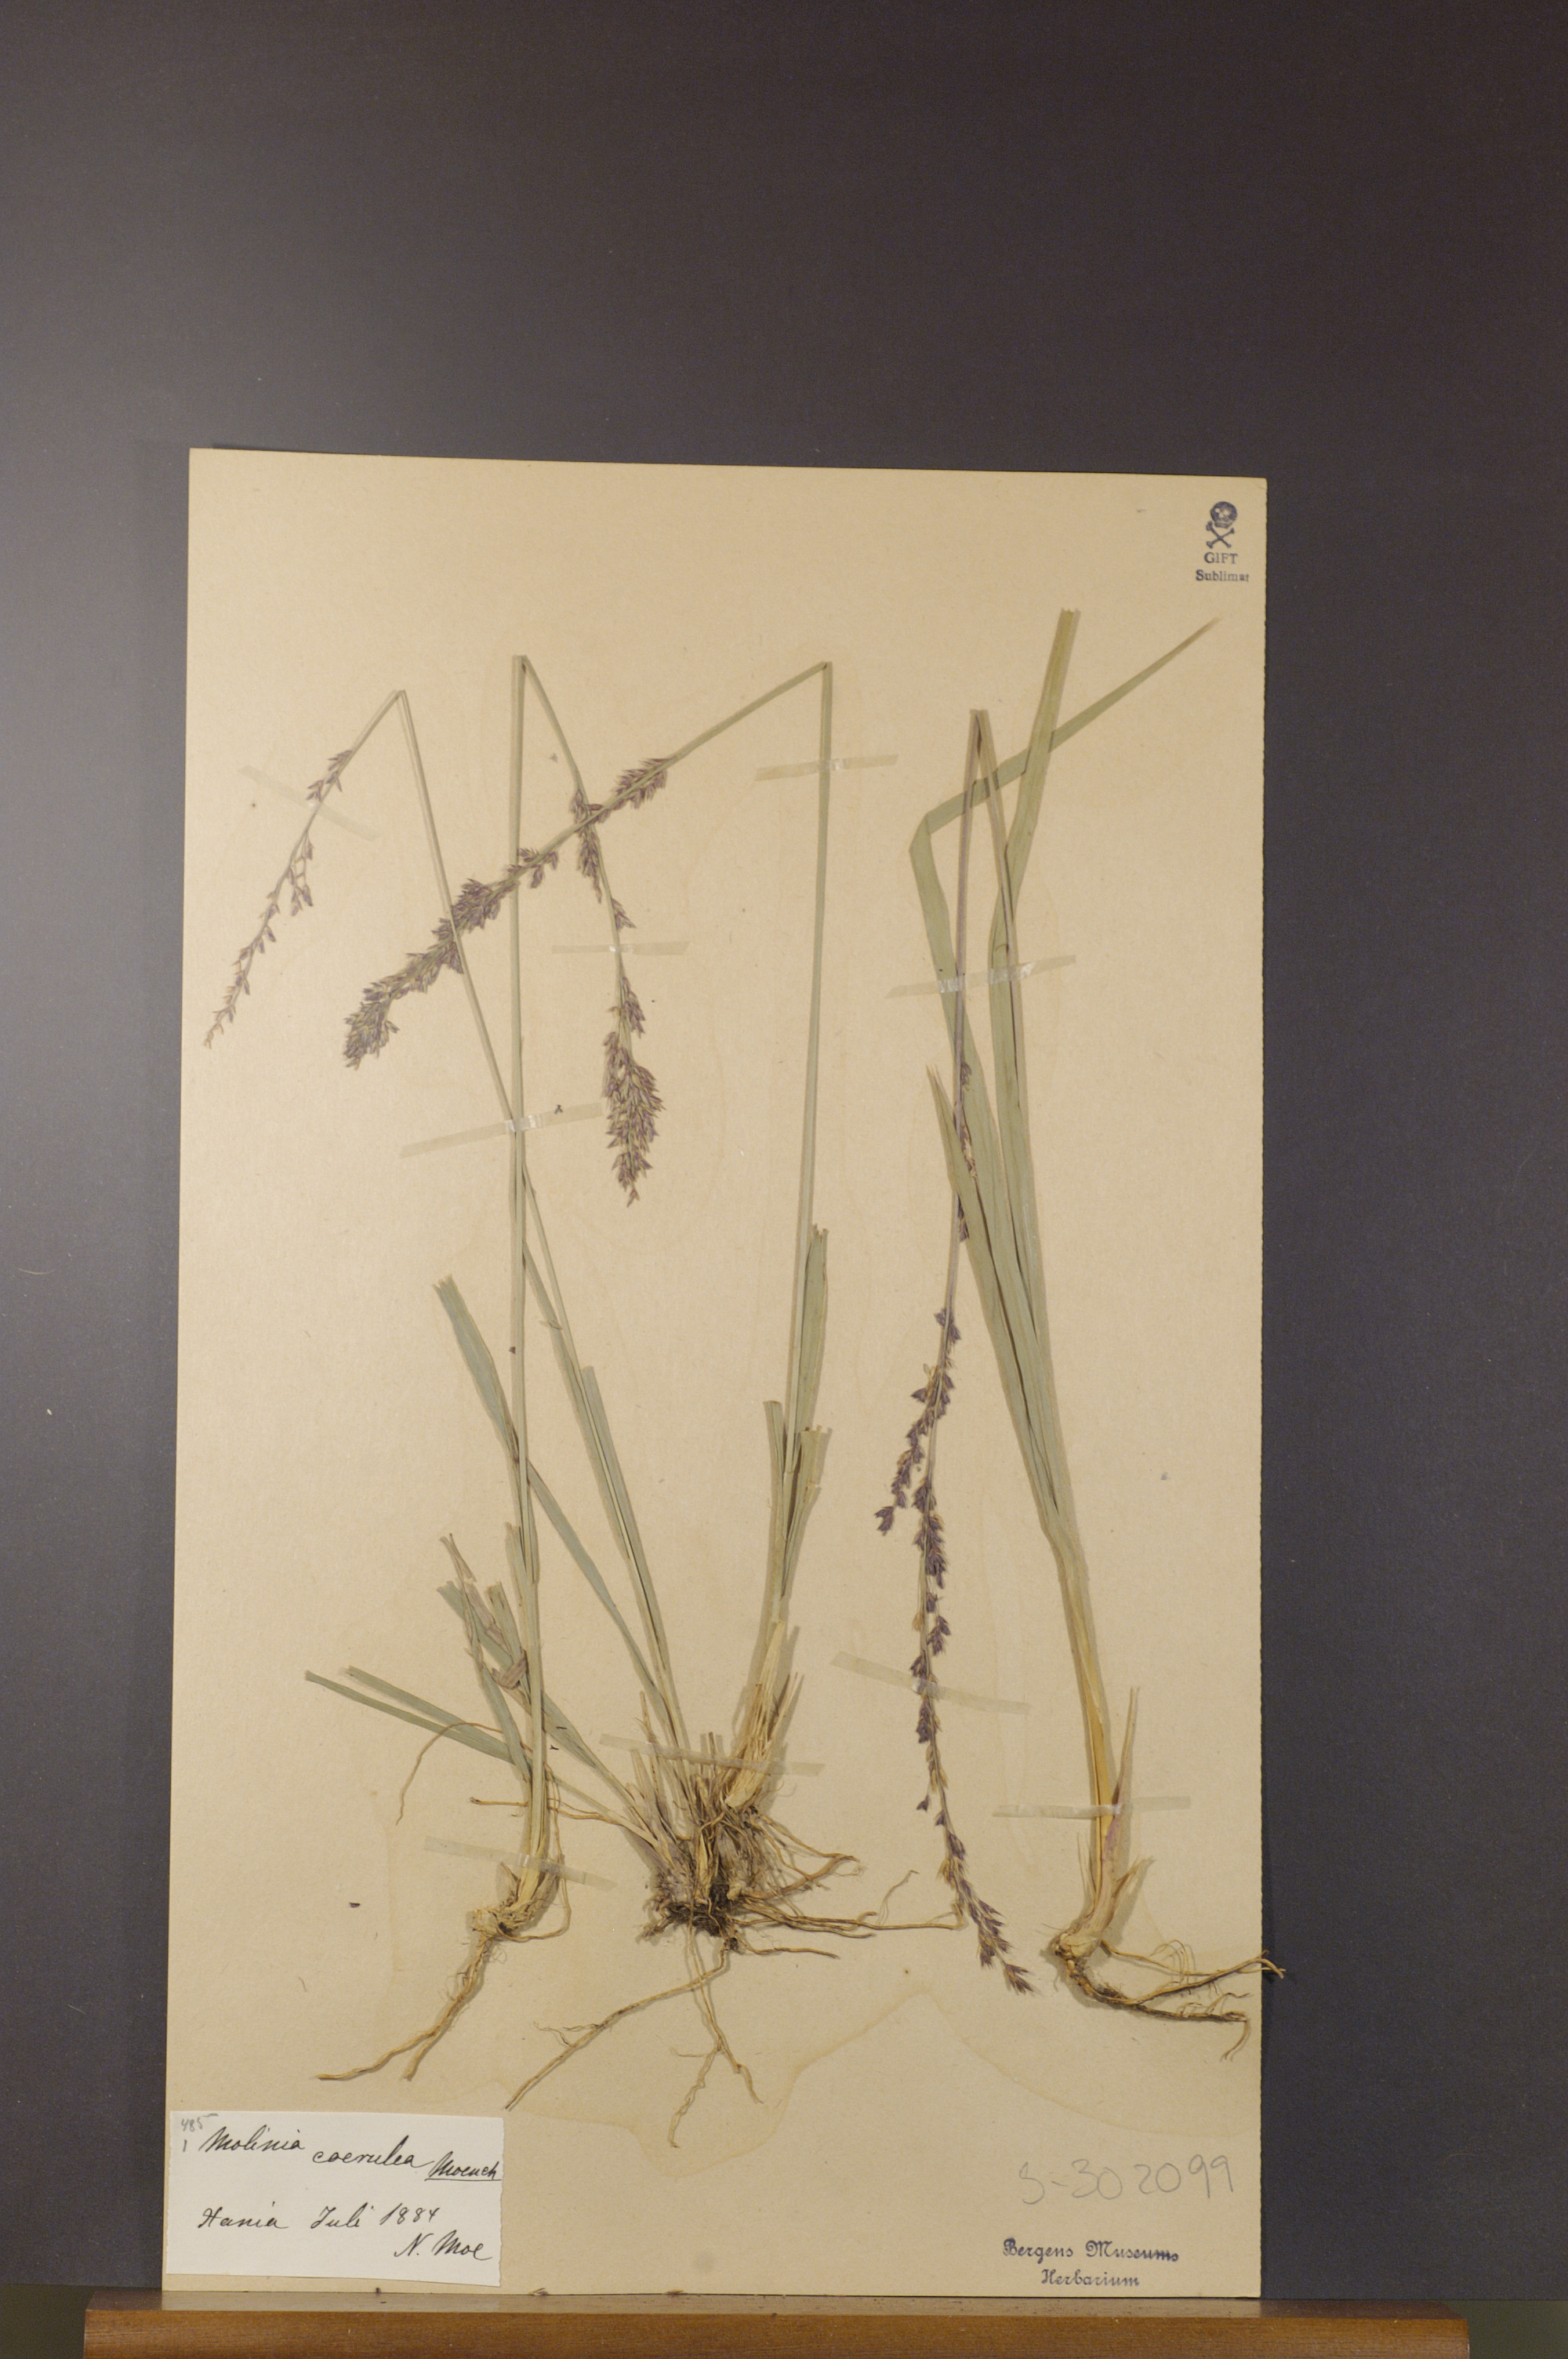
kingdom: Plantae
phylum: Tracheophyta
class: Liliopsida
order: Poales
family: Poaceae
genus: Molinia
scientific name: Molinia caerulea
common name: Purple moor-grass
